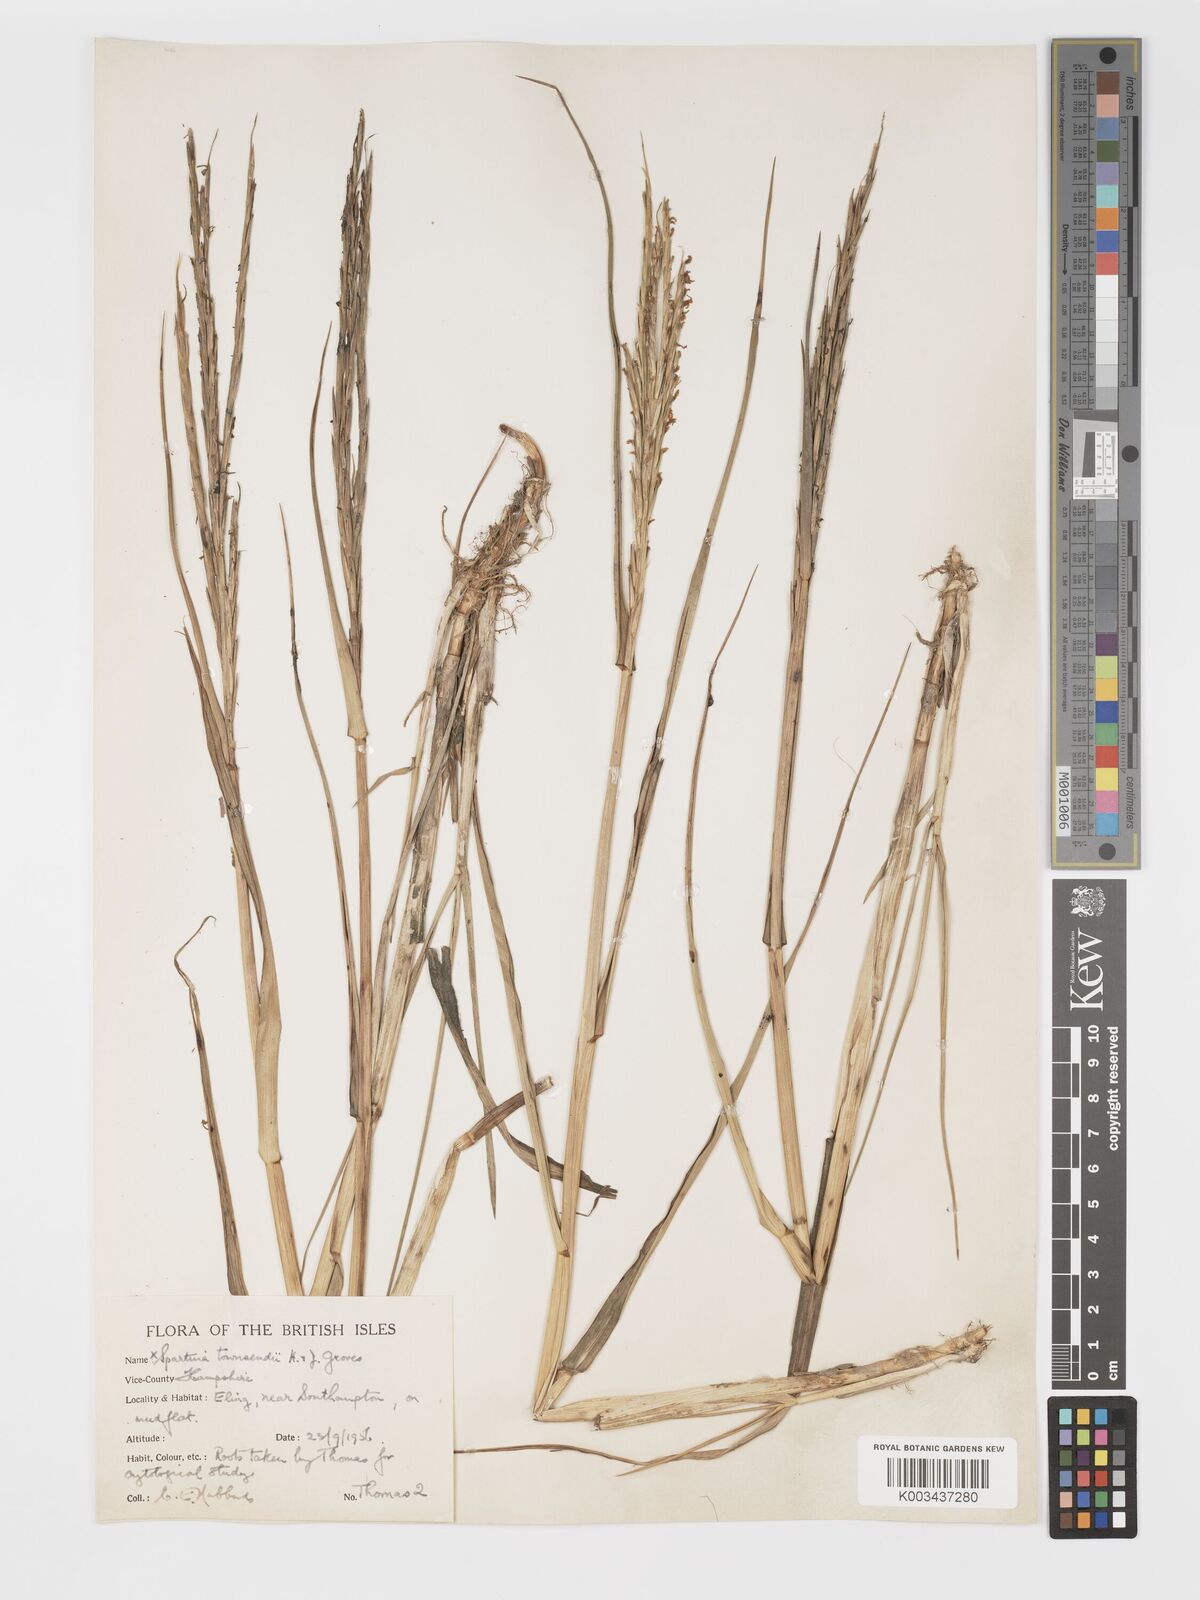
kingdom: Plantae
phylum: Tracheophyta
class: Liliopsida
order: Poales
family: Poaceae
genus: Sporobolus
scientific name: Sporobolus townsendii
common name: Townsend's cordgrass
